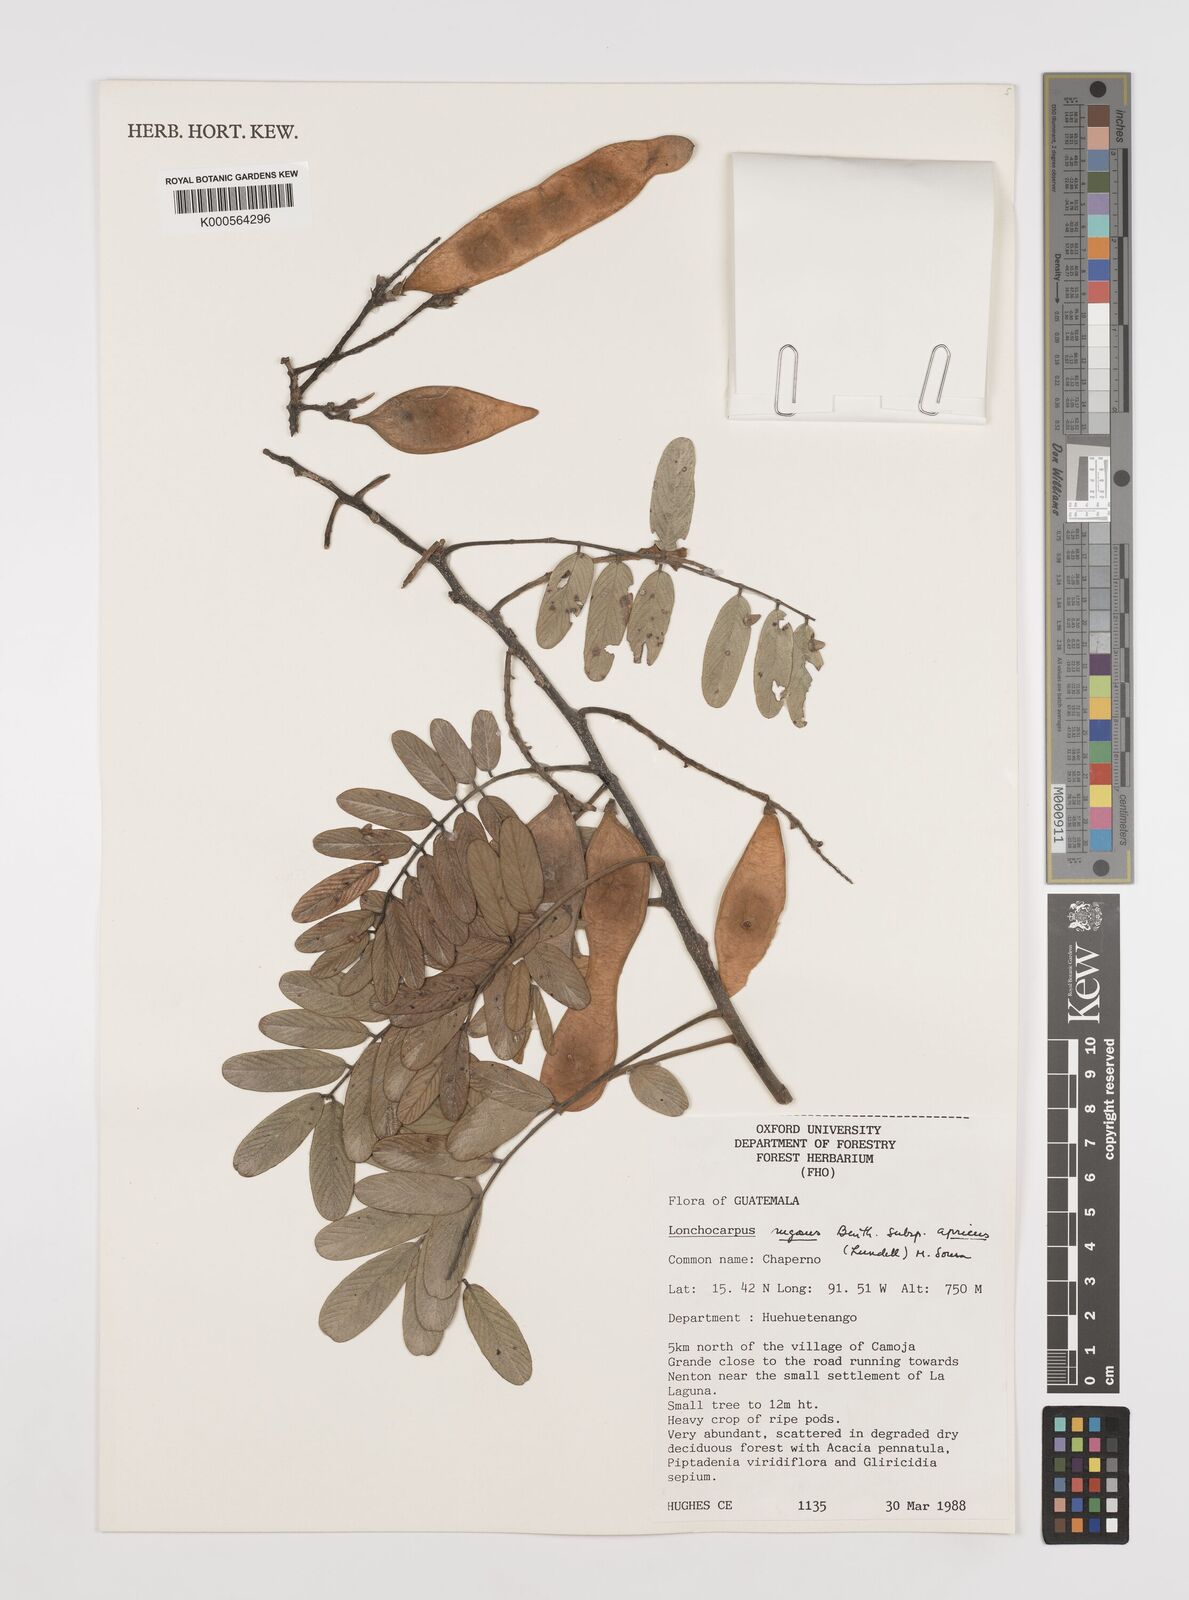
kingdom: Plantae
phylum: Tracheophyta
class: Magnoliopsida
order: Fabales
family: Fabaceae
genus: Lonchocarpus
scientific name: Lonchocarpus rugosus
